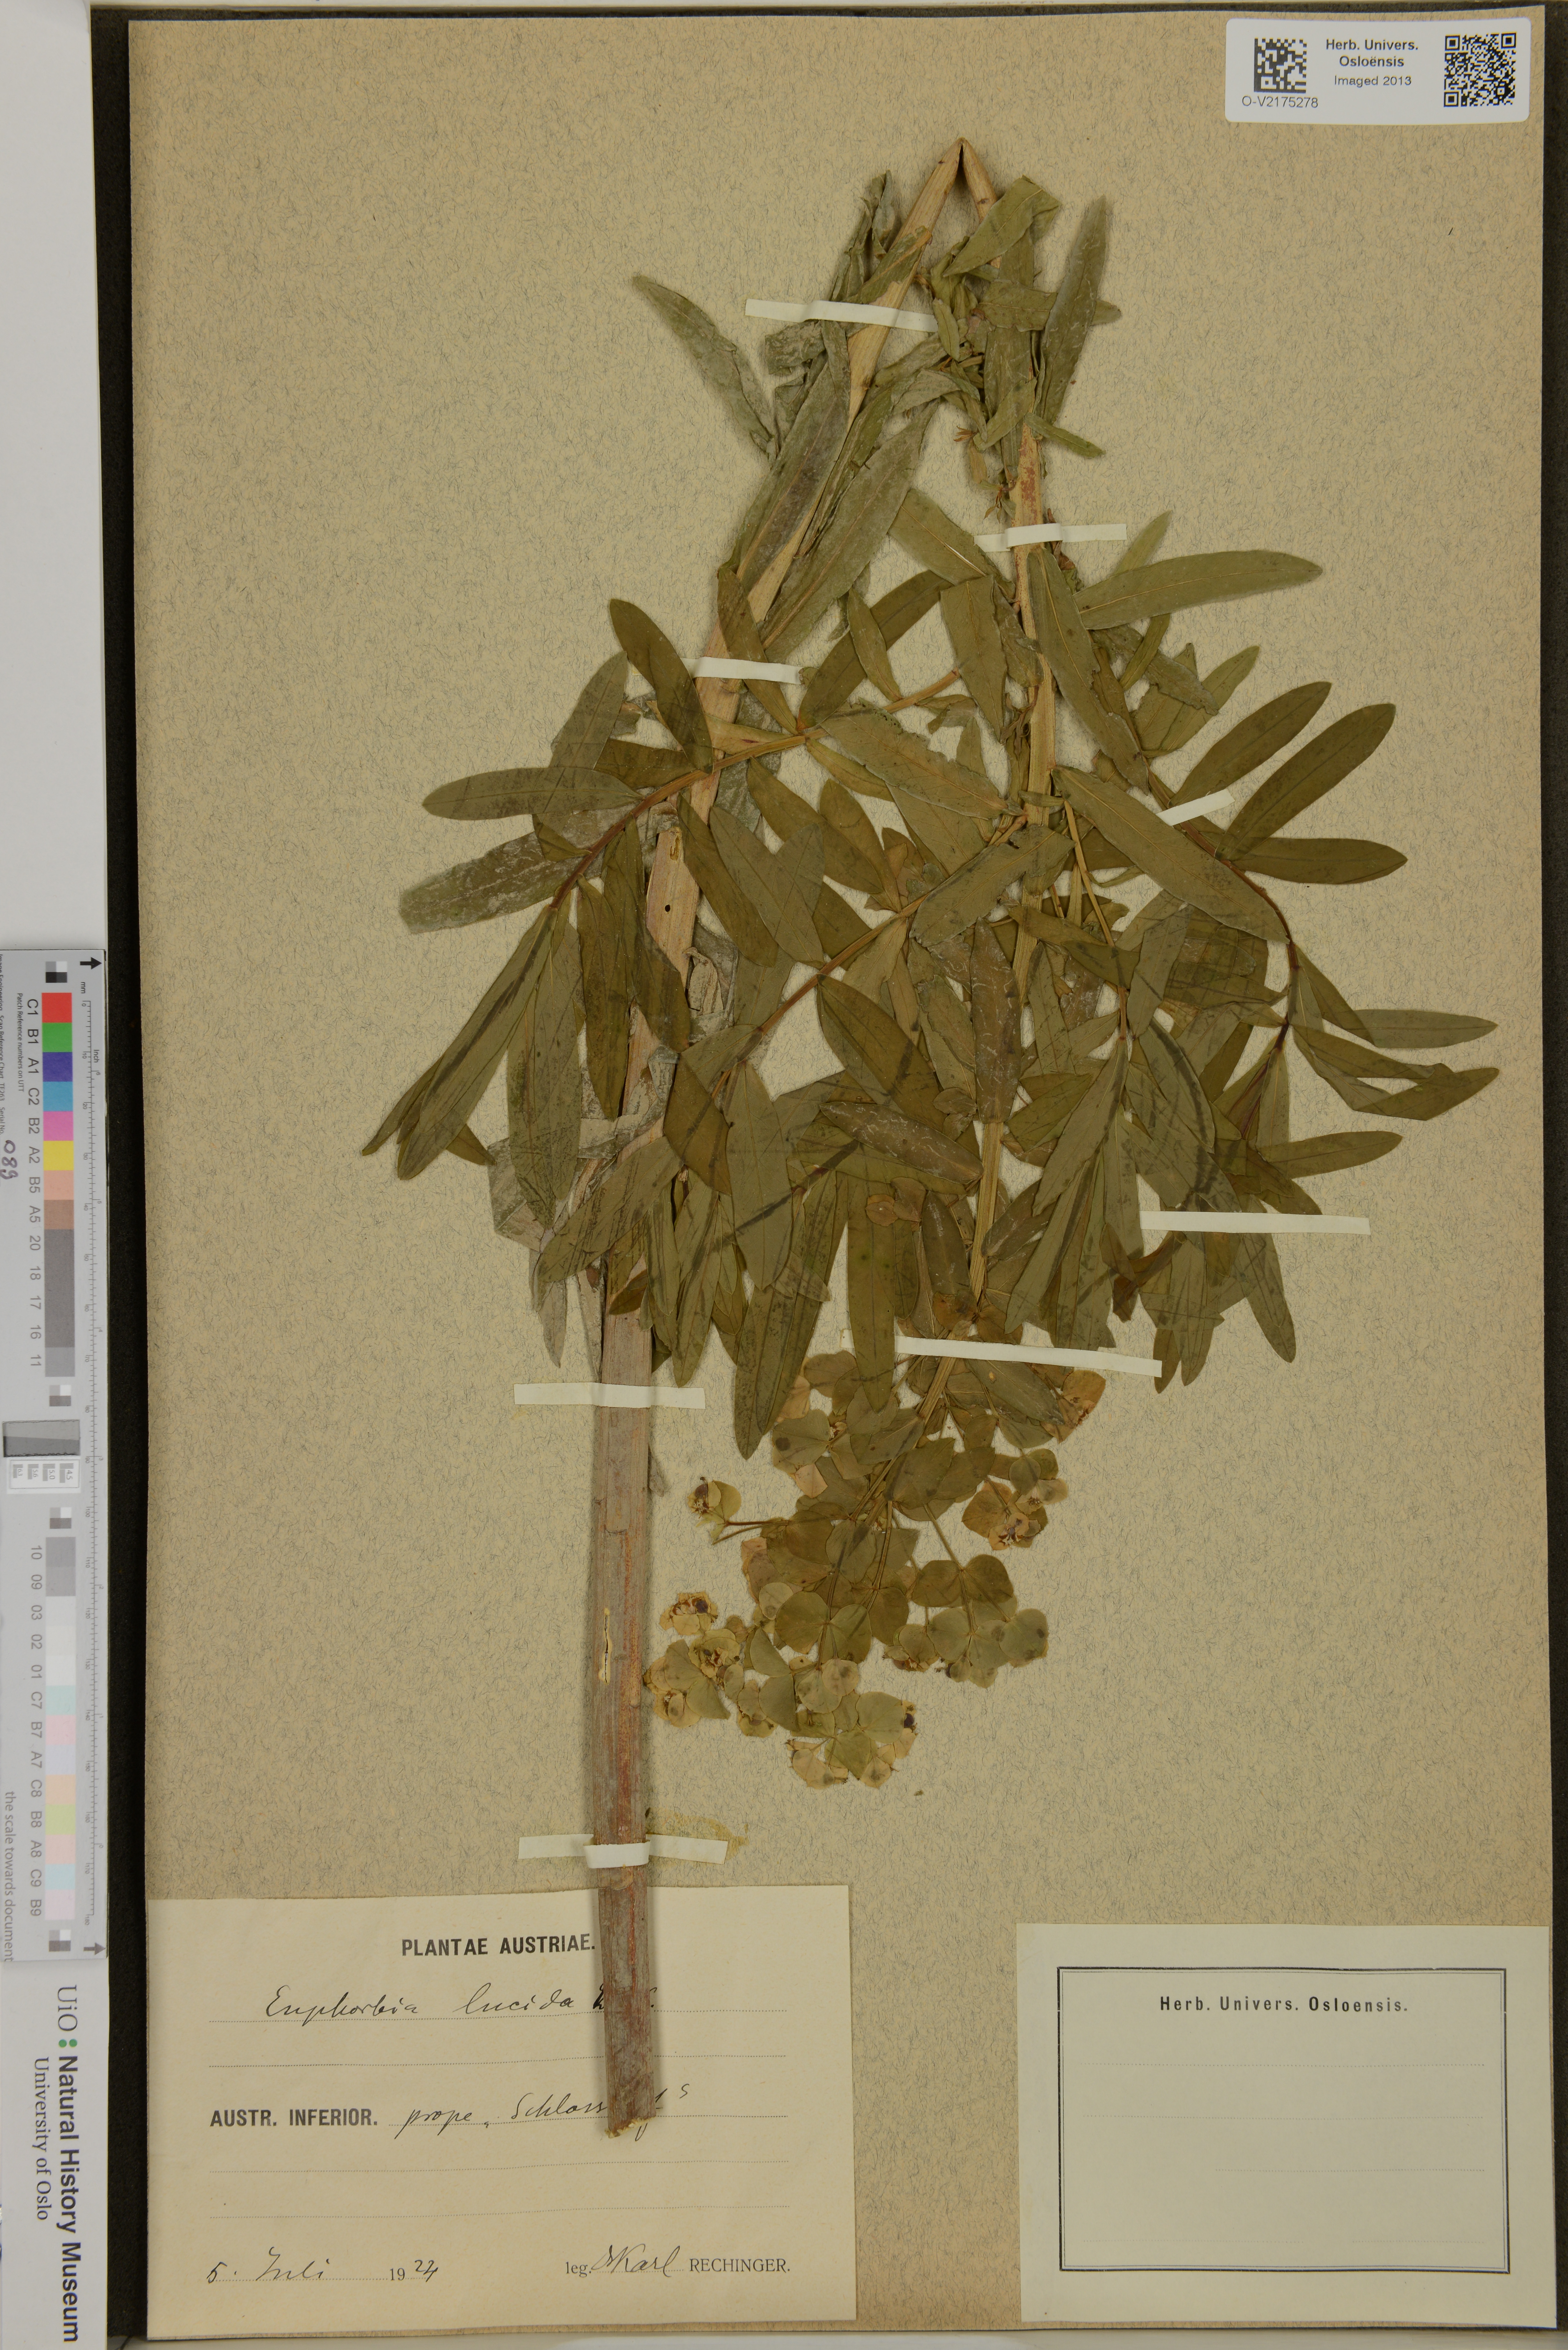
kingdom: Plantae
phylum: Tracheophyta
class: Magnoliopsida
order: Malpighiales
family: Euphorbiaceae
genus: Euphorbia
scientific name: Euphorbia lucida
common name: Shining spurge
